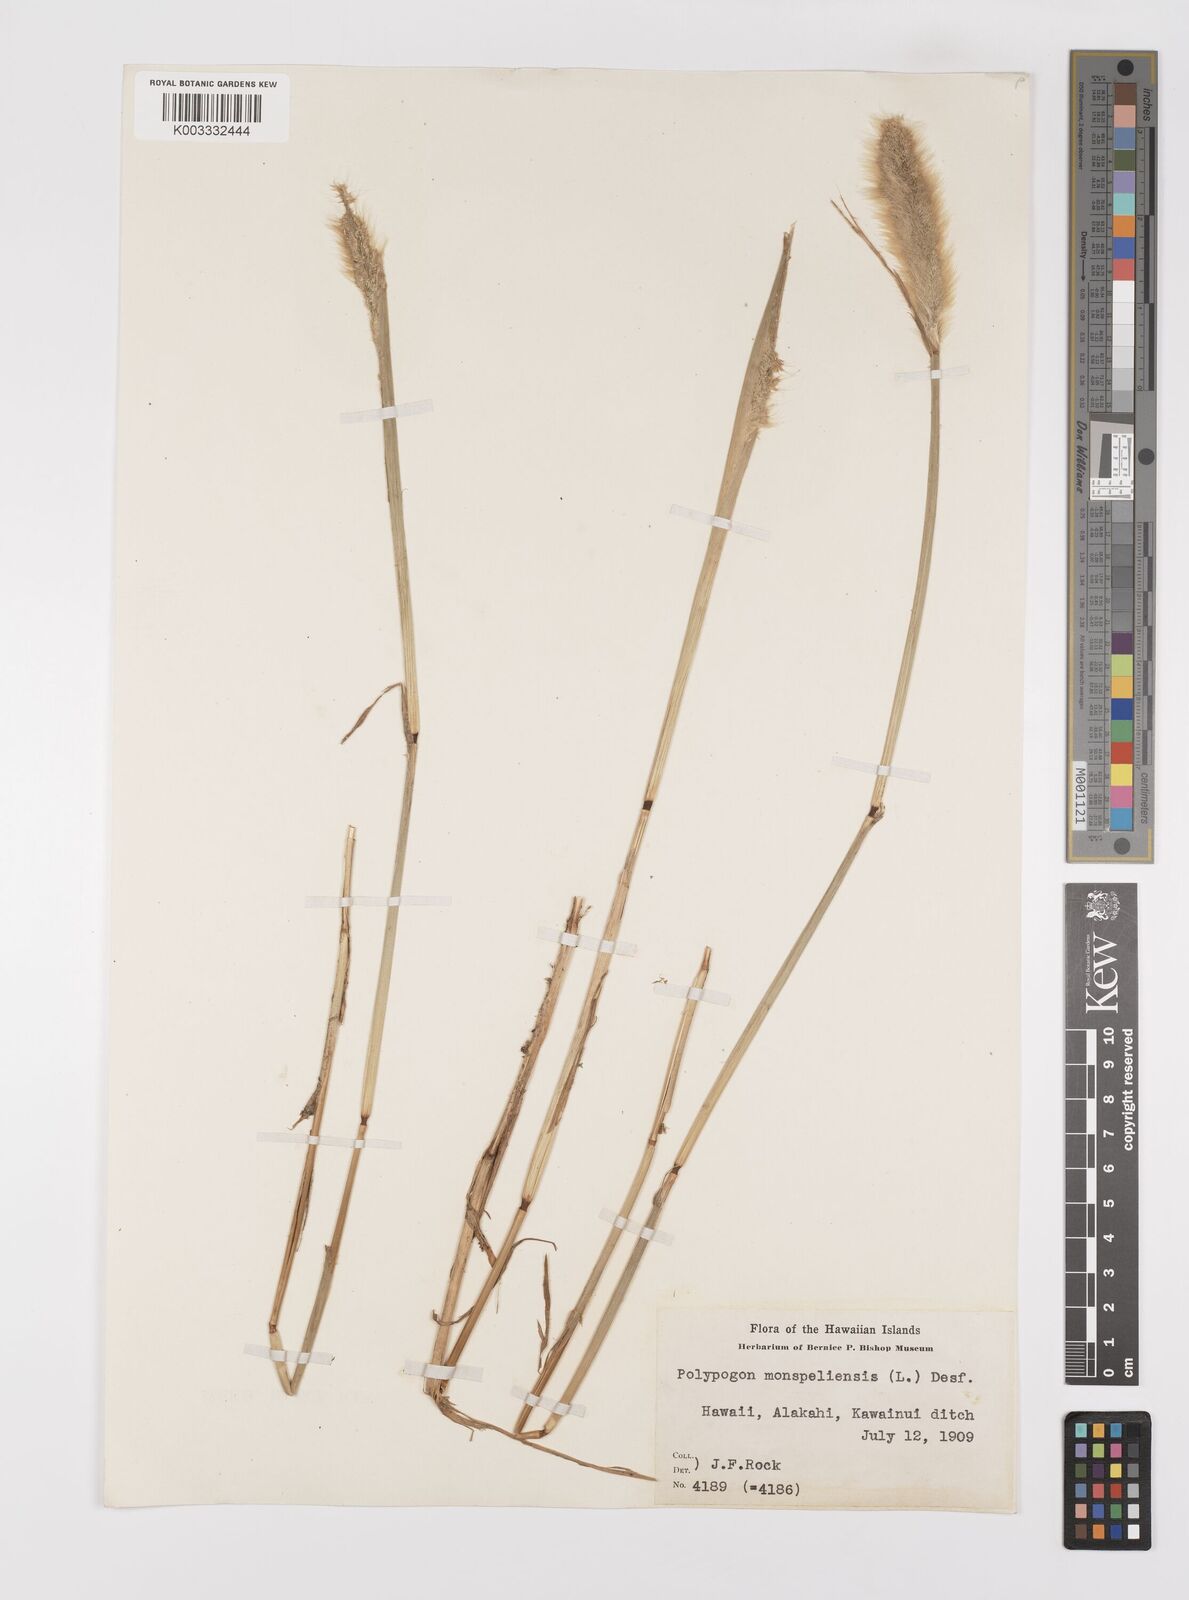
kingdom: Plantae
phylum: Tracheophyta
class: Liliopsida
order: Poales
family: Poaceae
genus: Polypogon
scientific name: Polypogon monspeliensis
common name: Annual rabbitsfoot grass
